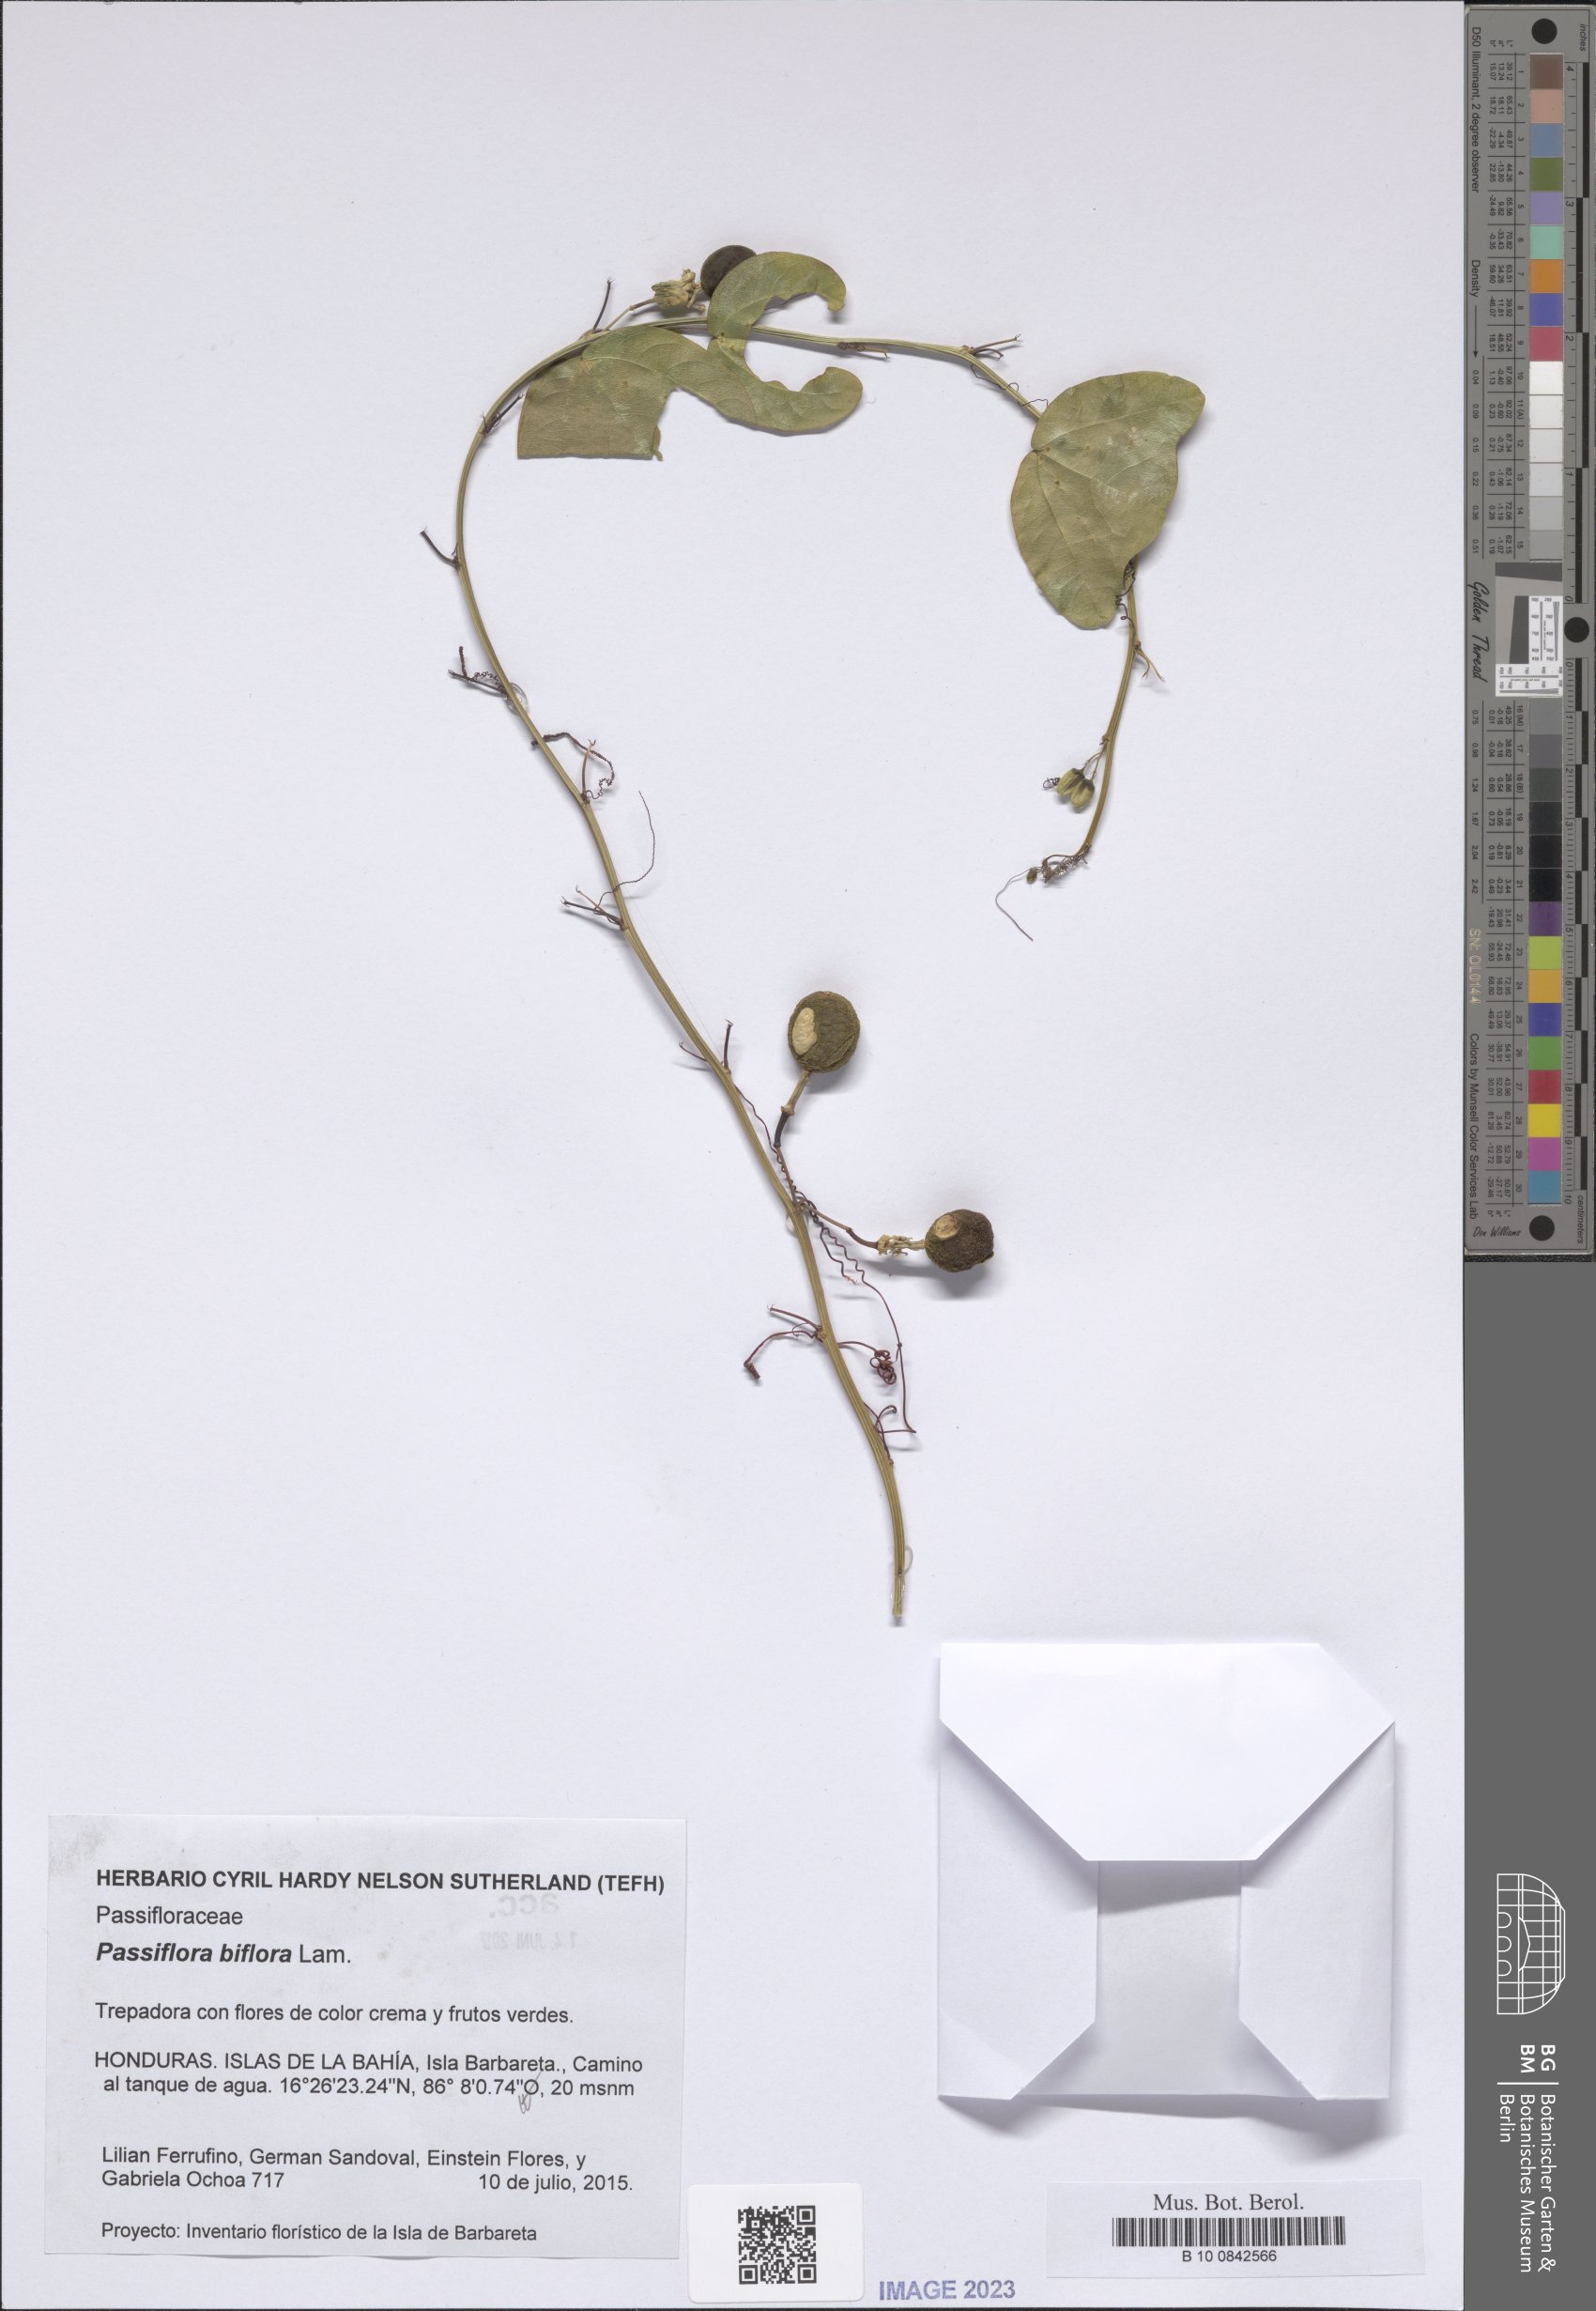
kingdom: Plantae
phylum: Tracheophyta
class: Magnoliopsida
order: Malpighiales
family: Passifloraceae
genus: Passiflora
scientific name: Passiflora biflora
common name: Twoflower passionflower
